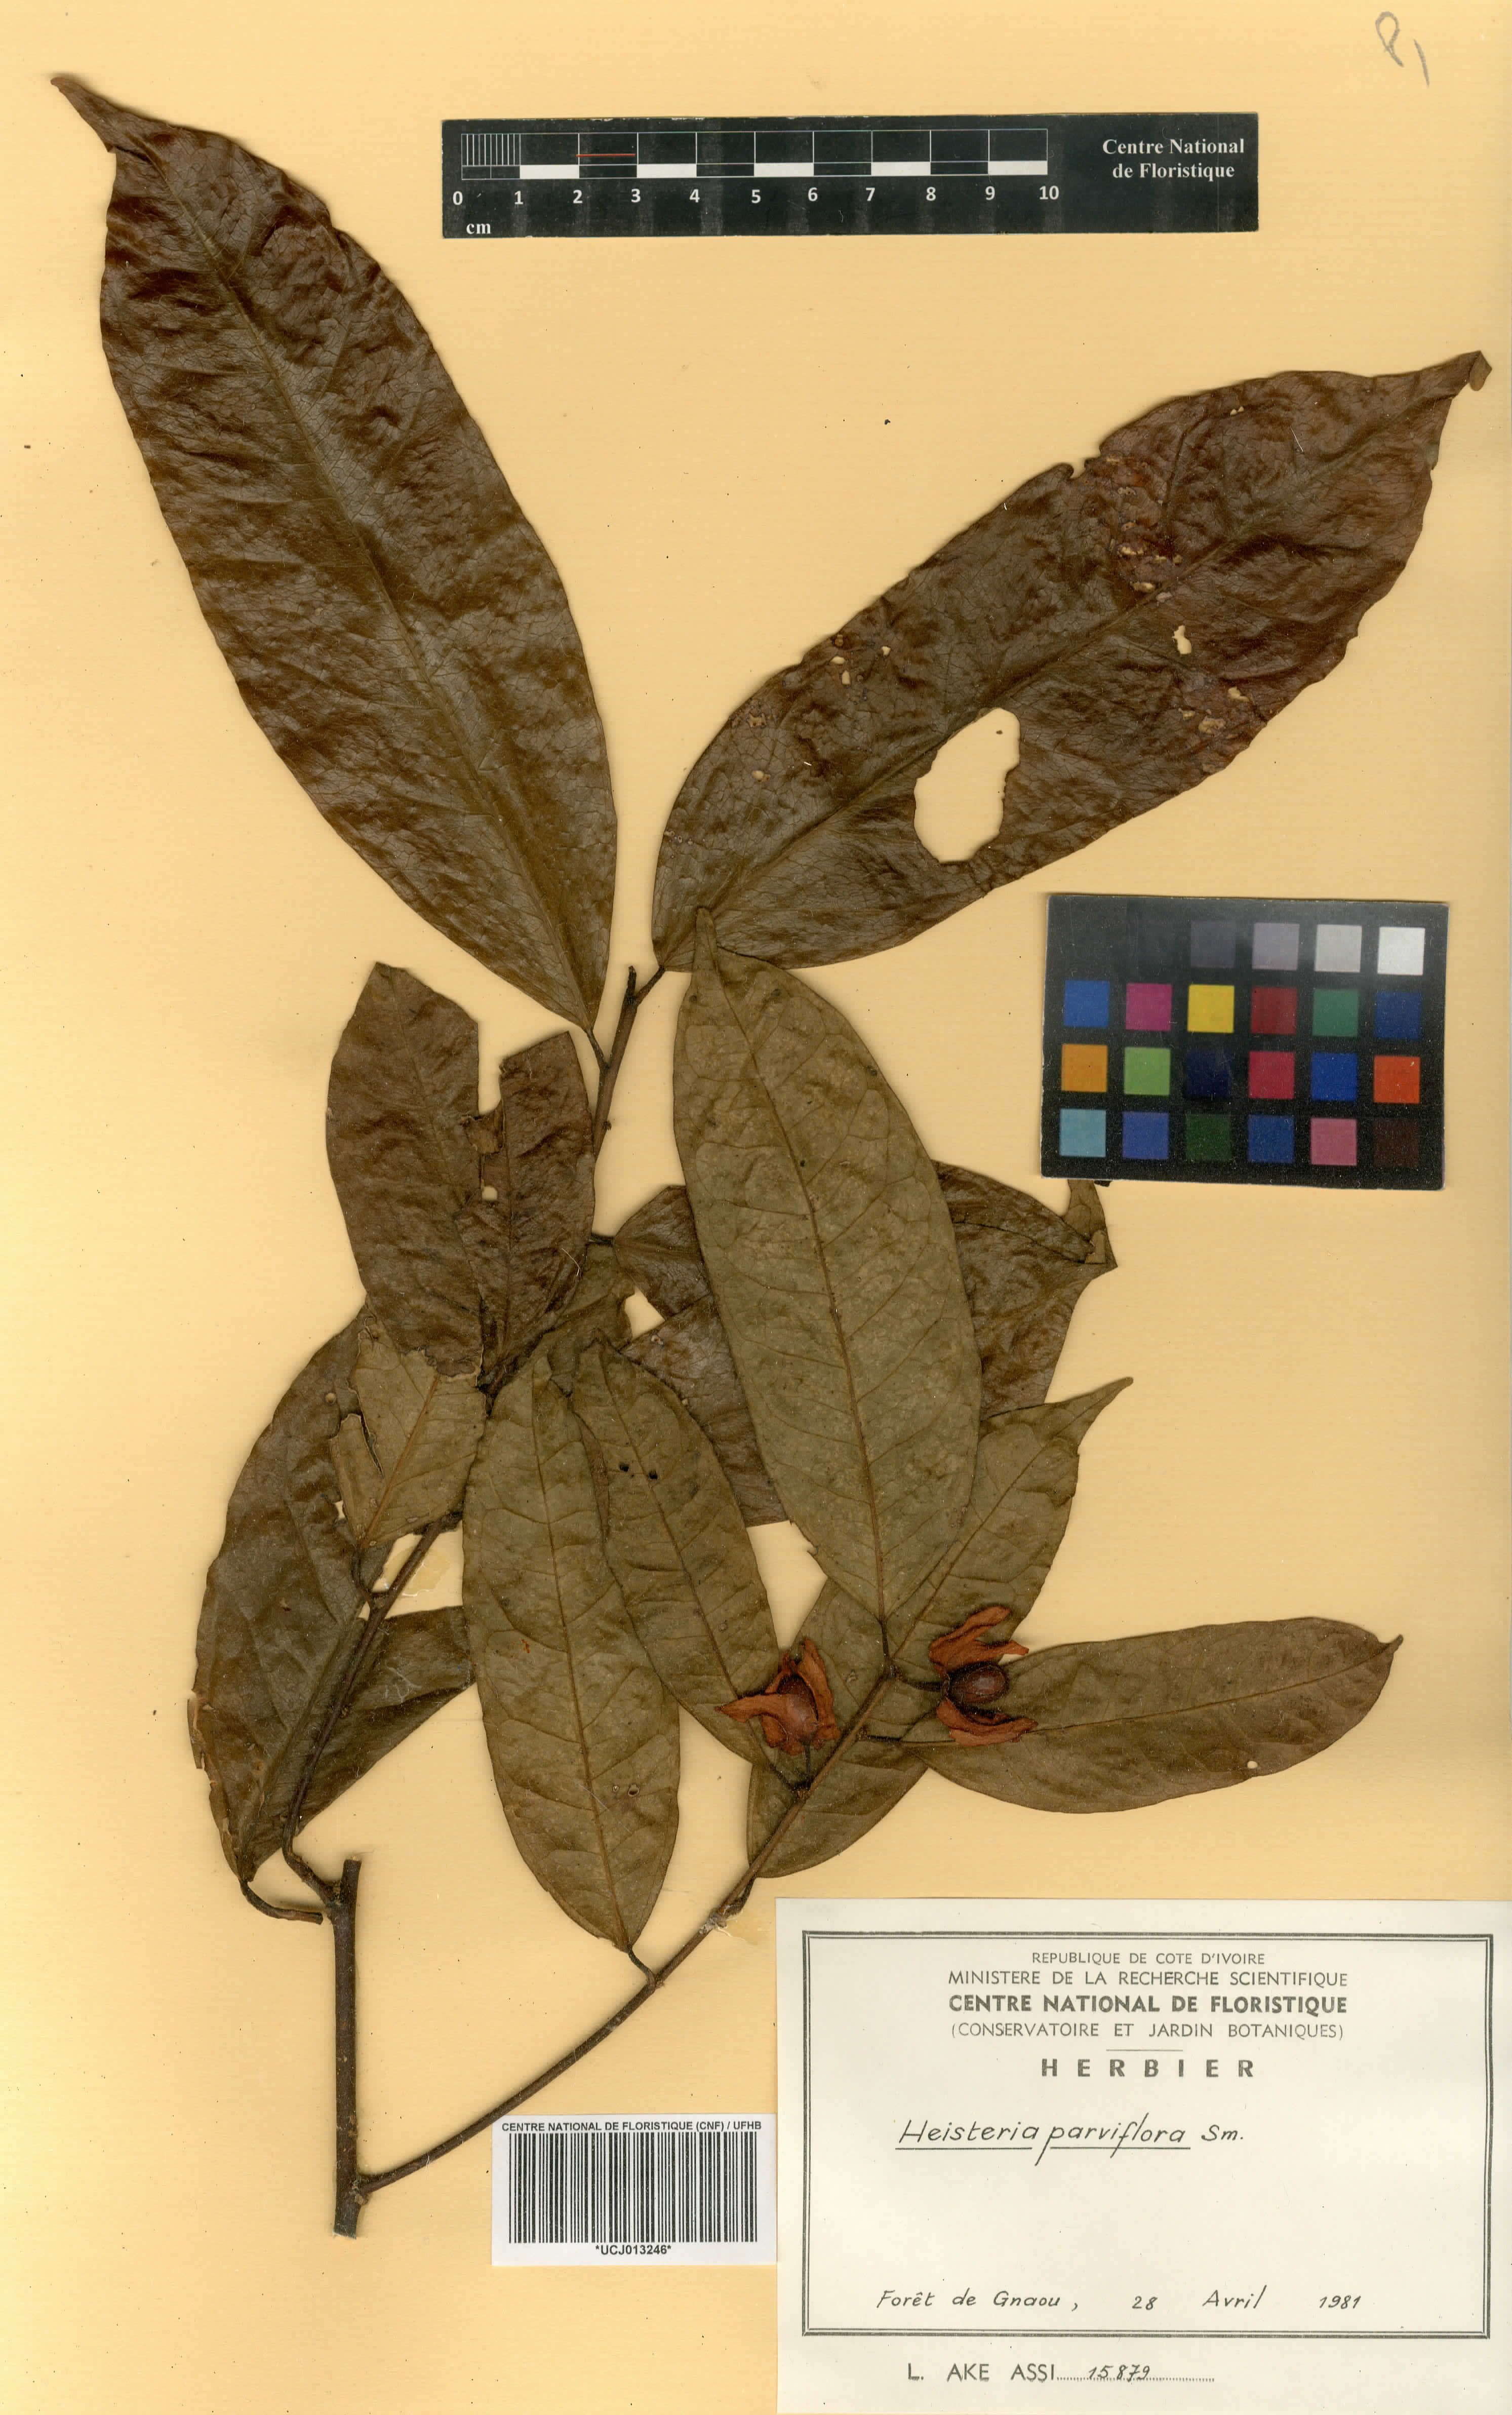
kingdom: Plantae
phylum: Tracheophyta
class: Magnoliopsida
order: Santalales
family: Erythropalaceae
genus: Heisteria
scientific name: Heisteria parvifolia
